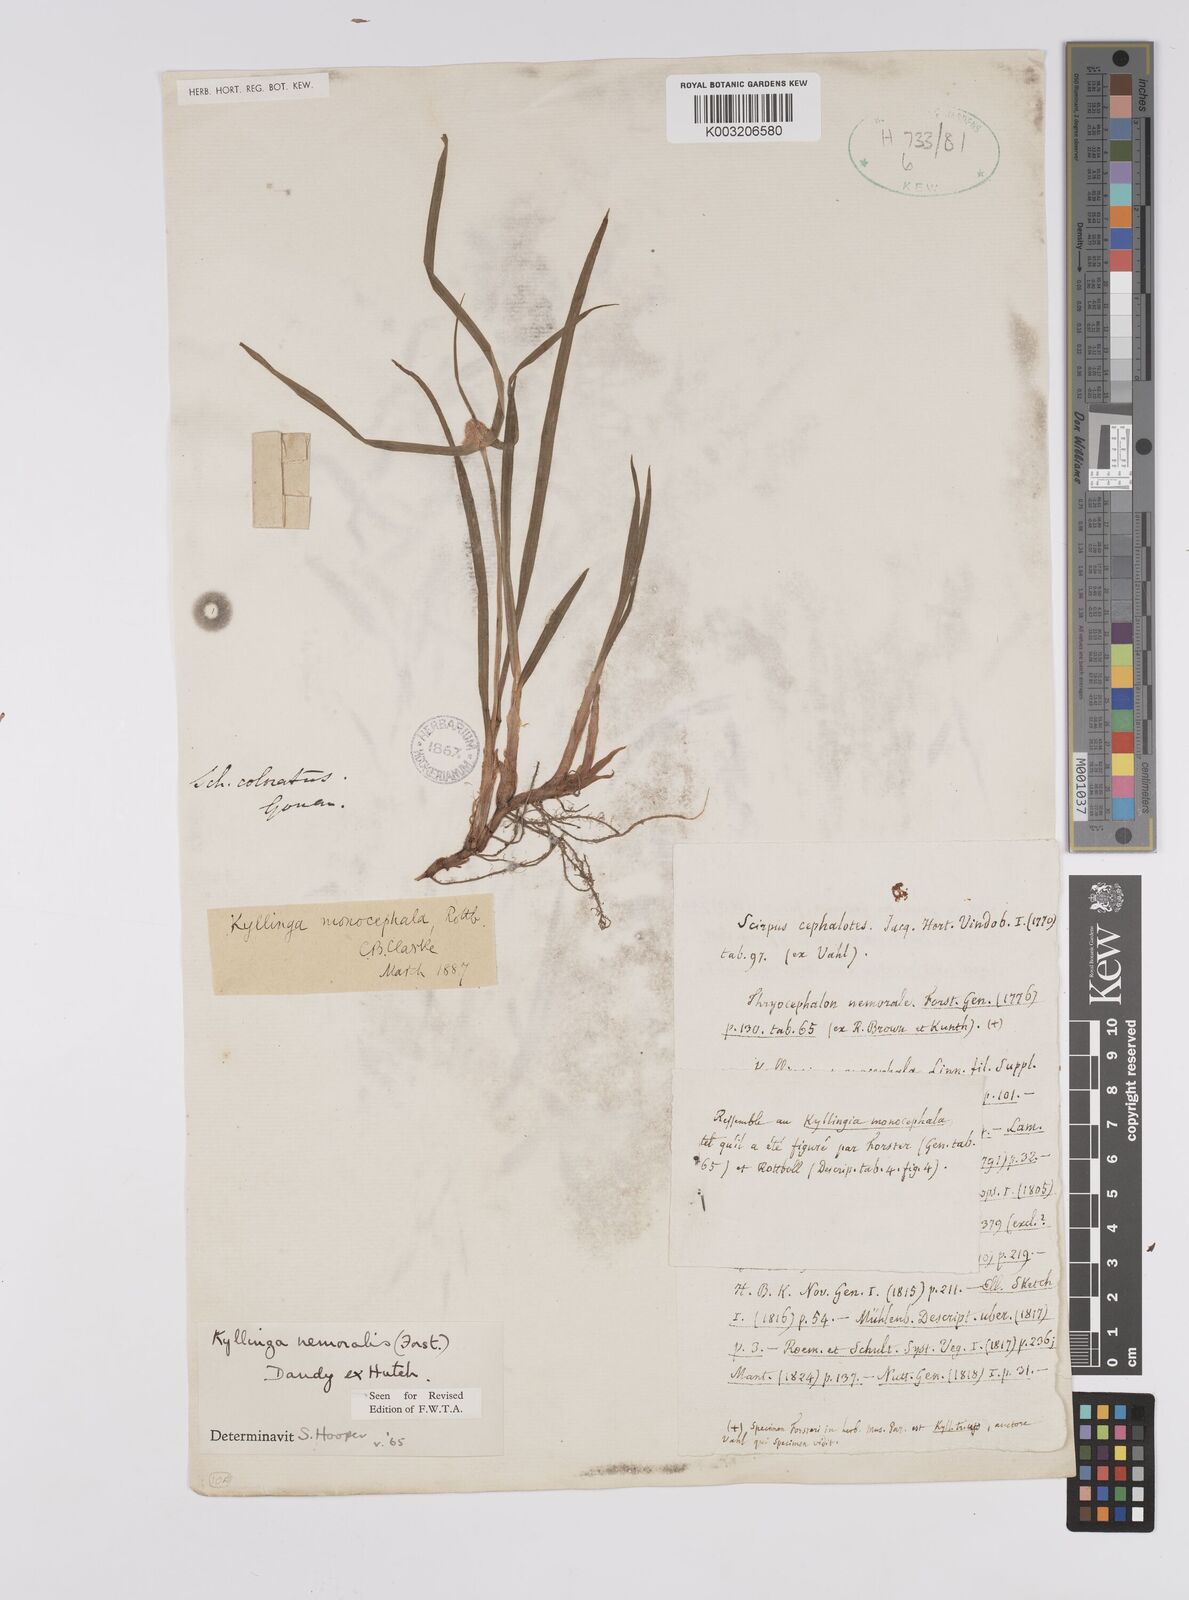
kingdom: Plantae
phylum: Tracheophyta
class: Liliopsida
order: Poales
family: Cyperaceae
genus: Cyperus
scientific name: Cyperus nemoralis
